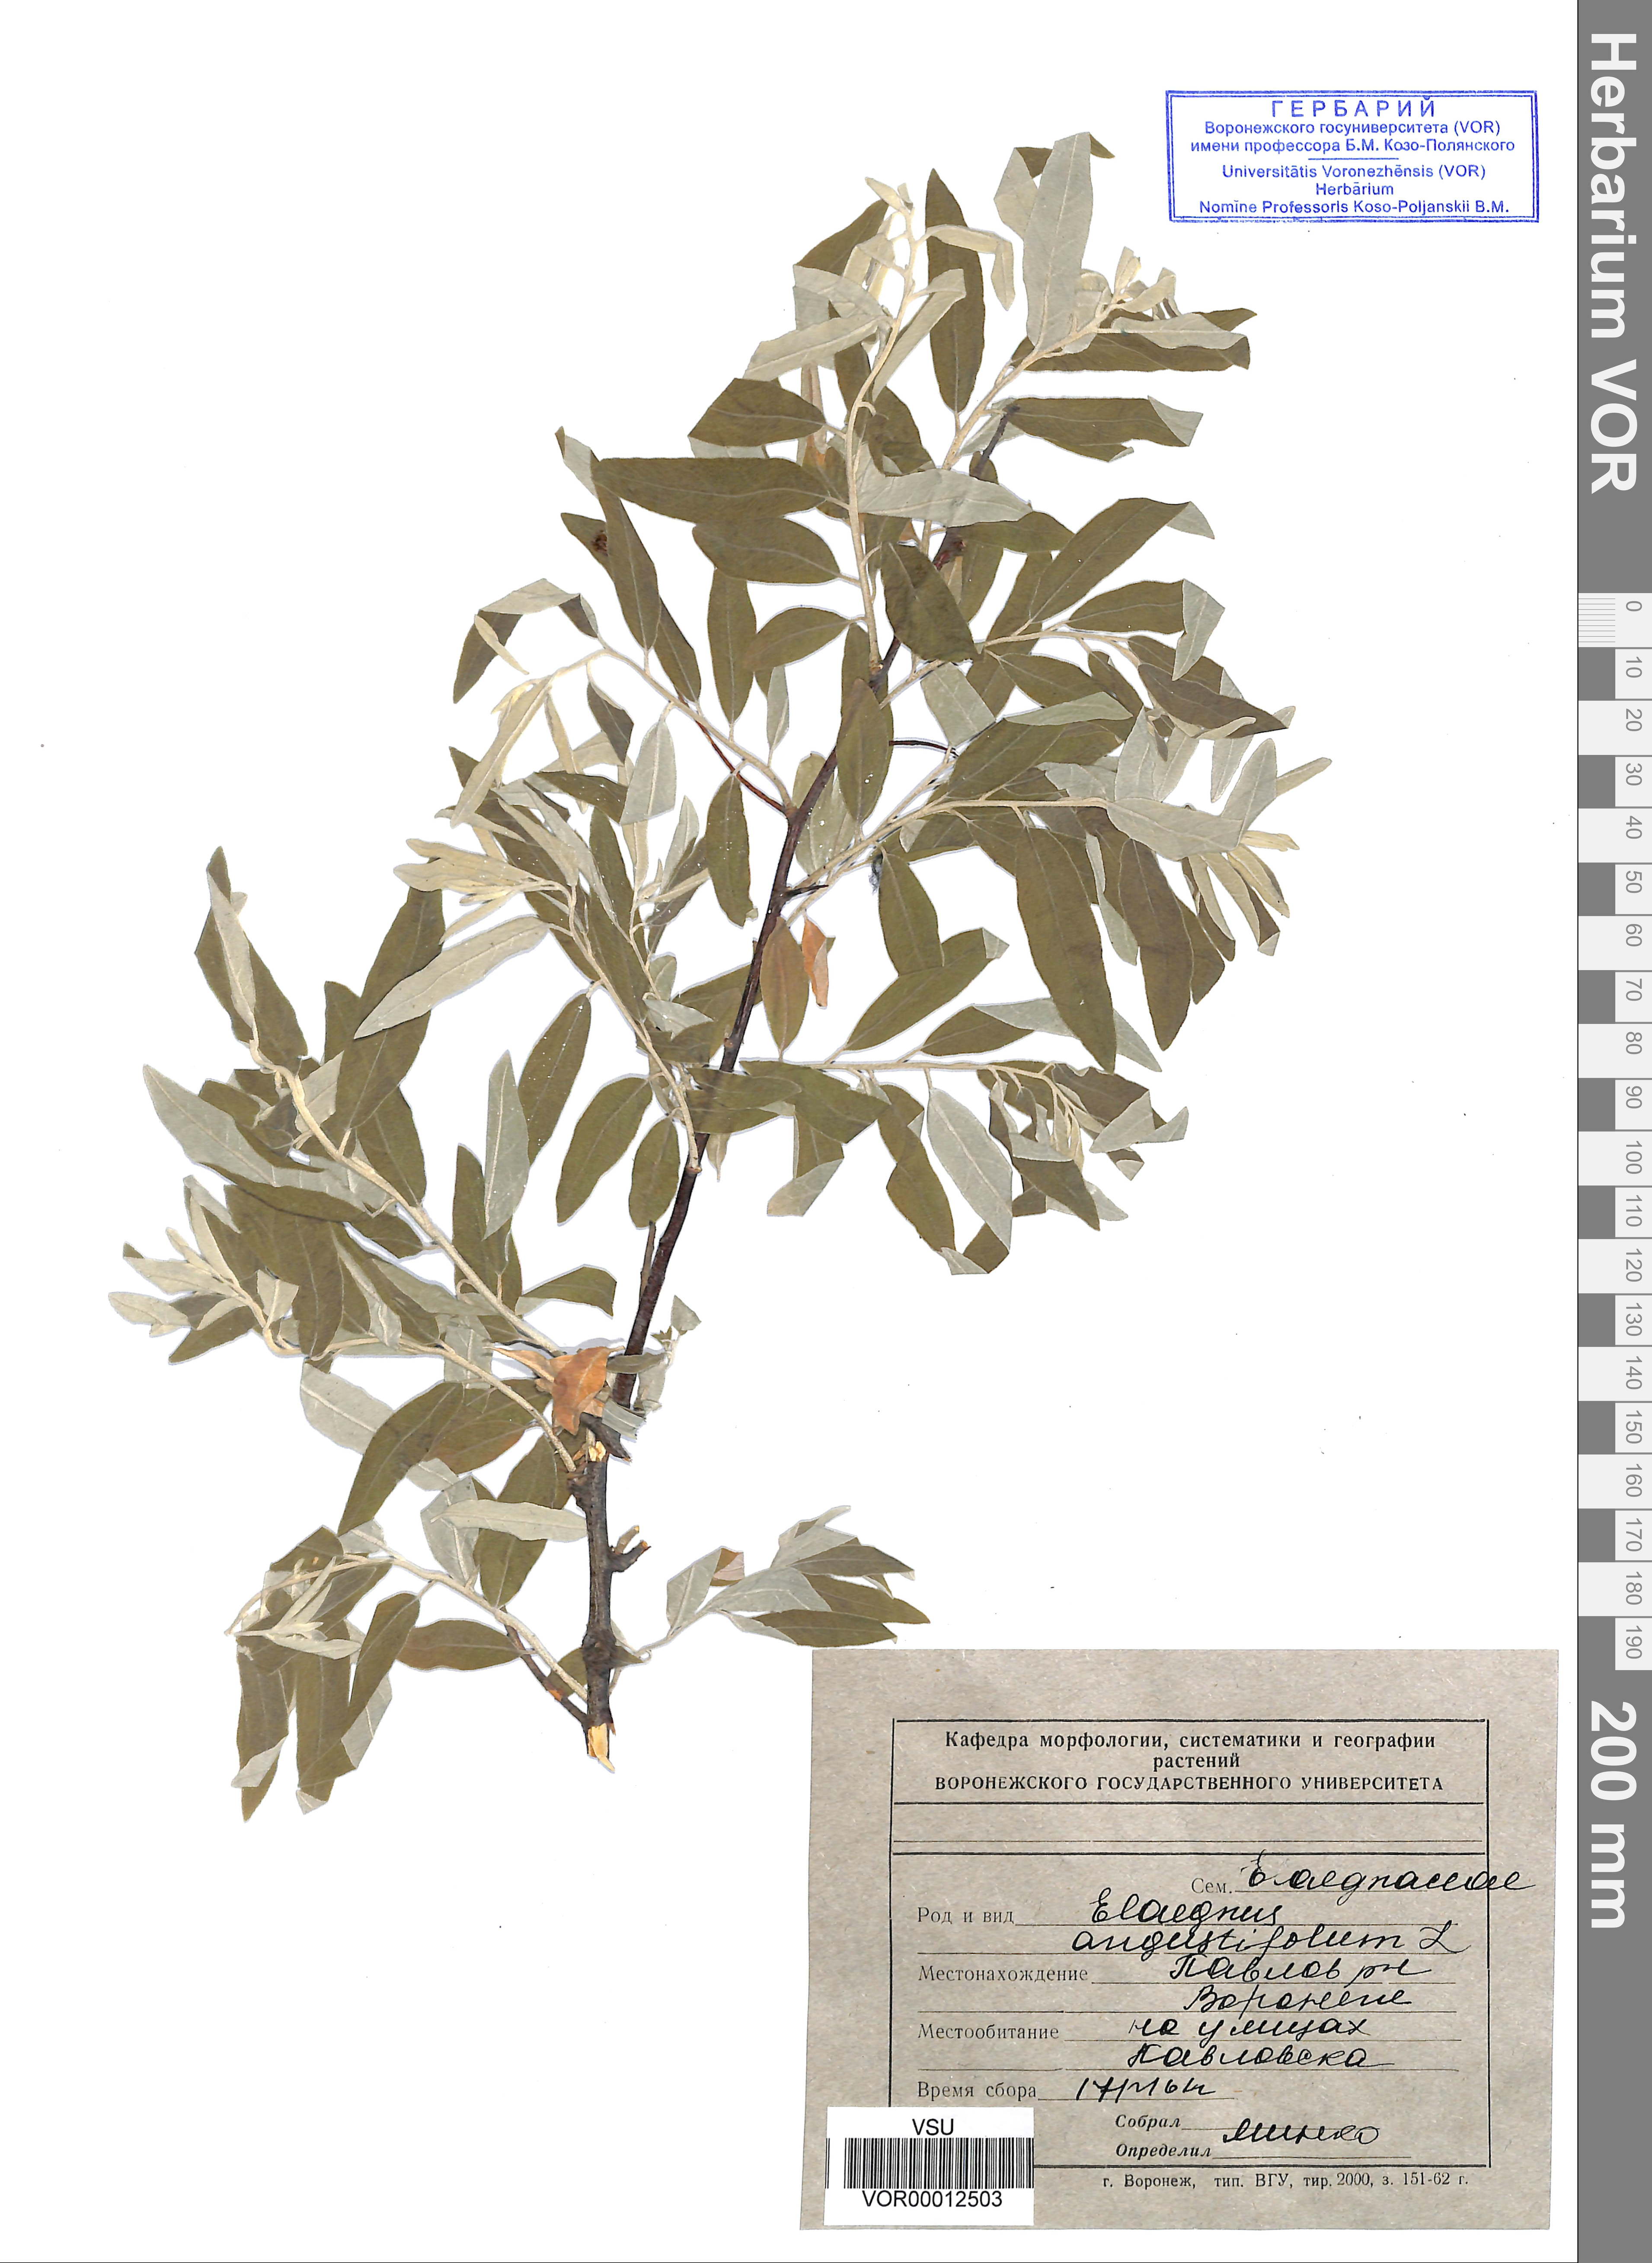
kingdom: Plantae
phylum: Tracheophyta
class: Magnoliopsida
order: Rosales
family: Elaeagnaceae
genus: Elaeagnus
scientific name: Elaeagnus angustifolia
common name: Russian olive
